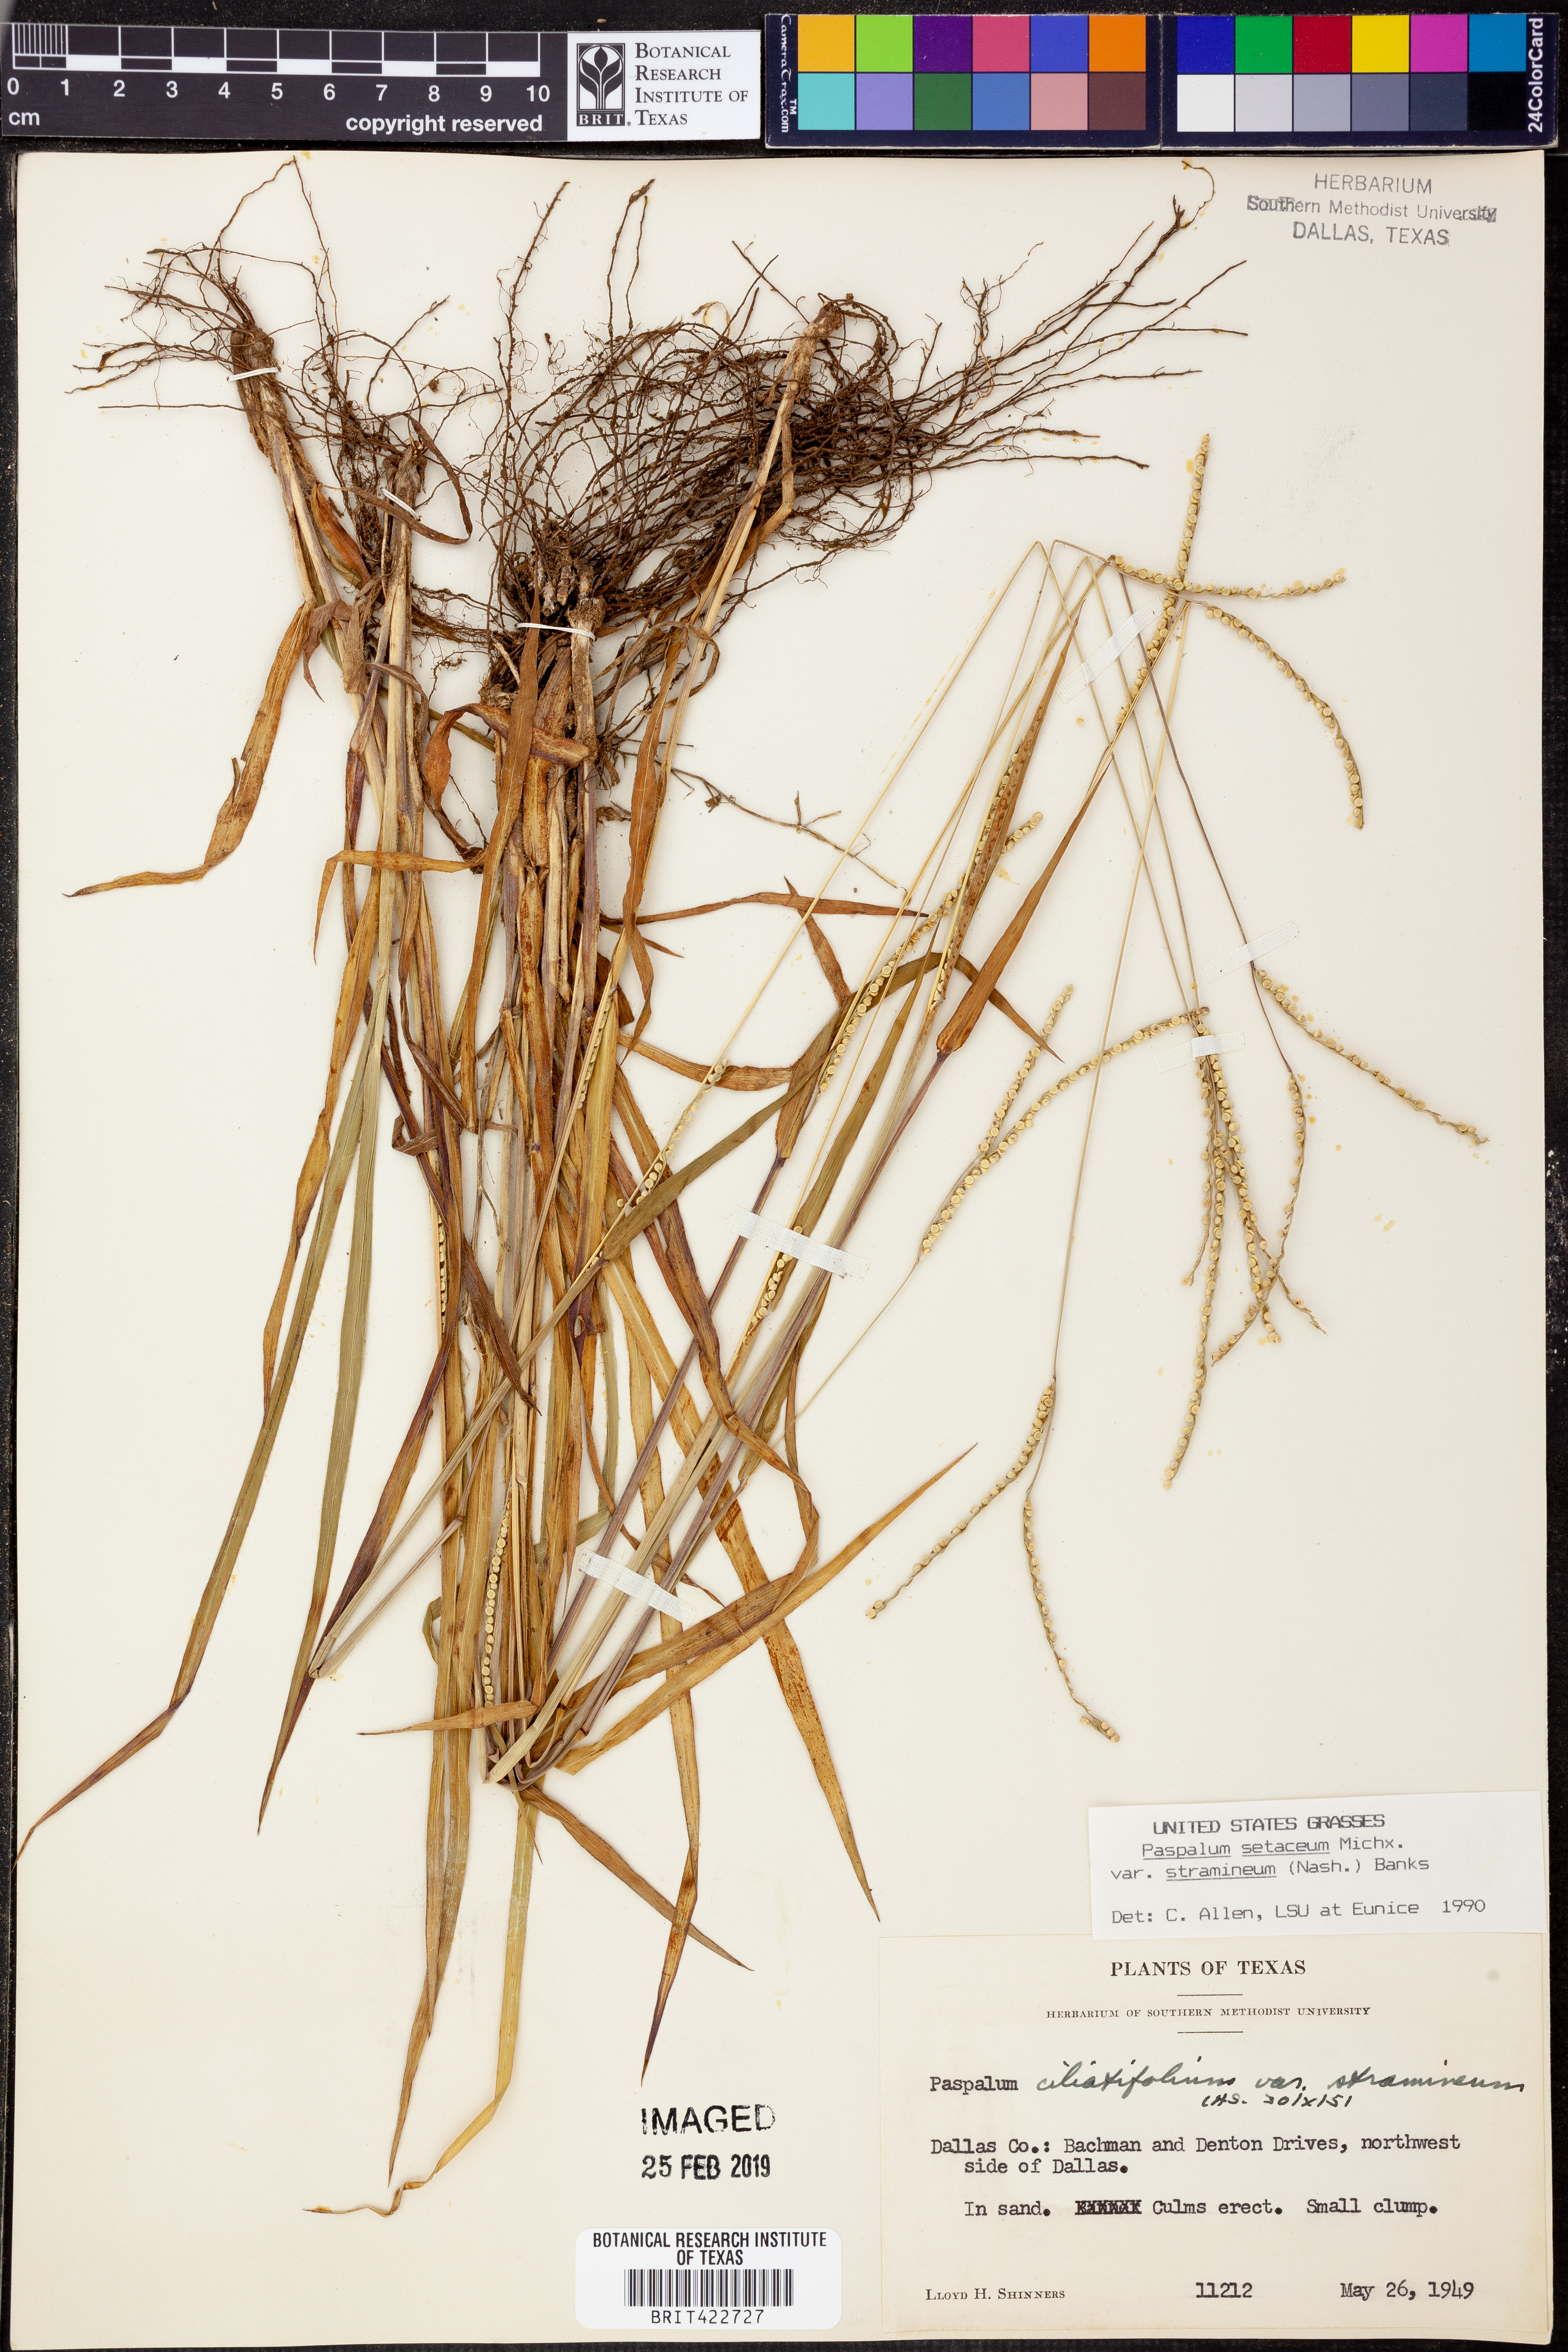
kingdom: Plantae
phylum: Tracheophyta
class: Liliopsida
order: Poales
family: Poaceae
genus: Paspalum
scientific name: Paspalum setaceum
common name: Slender paspalum
